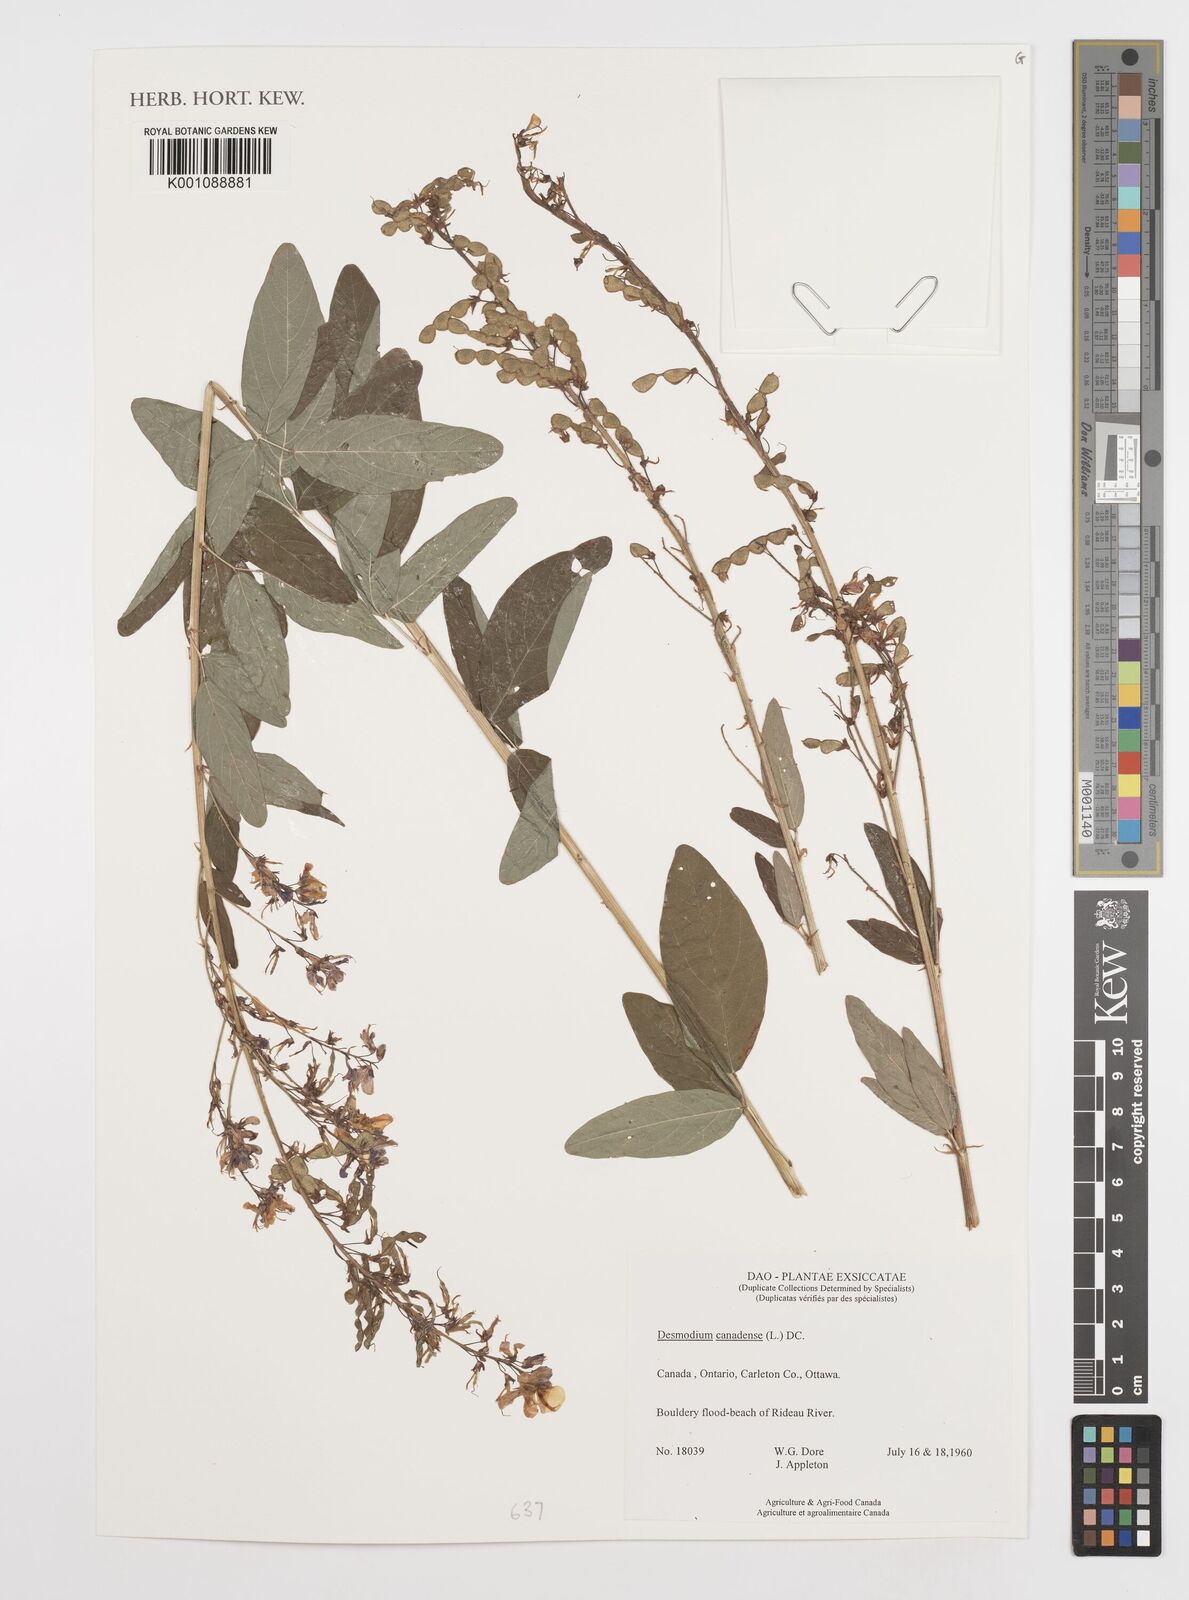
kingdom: Plantae
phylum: Tracheophyta
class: Magnoliopsida
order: Fabales
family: Fabaceae
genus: Desmodium
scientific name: Desmodium canadense
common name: Canada tick-trefoil
